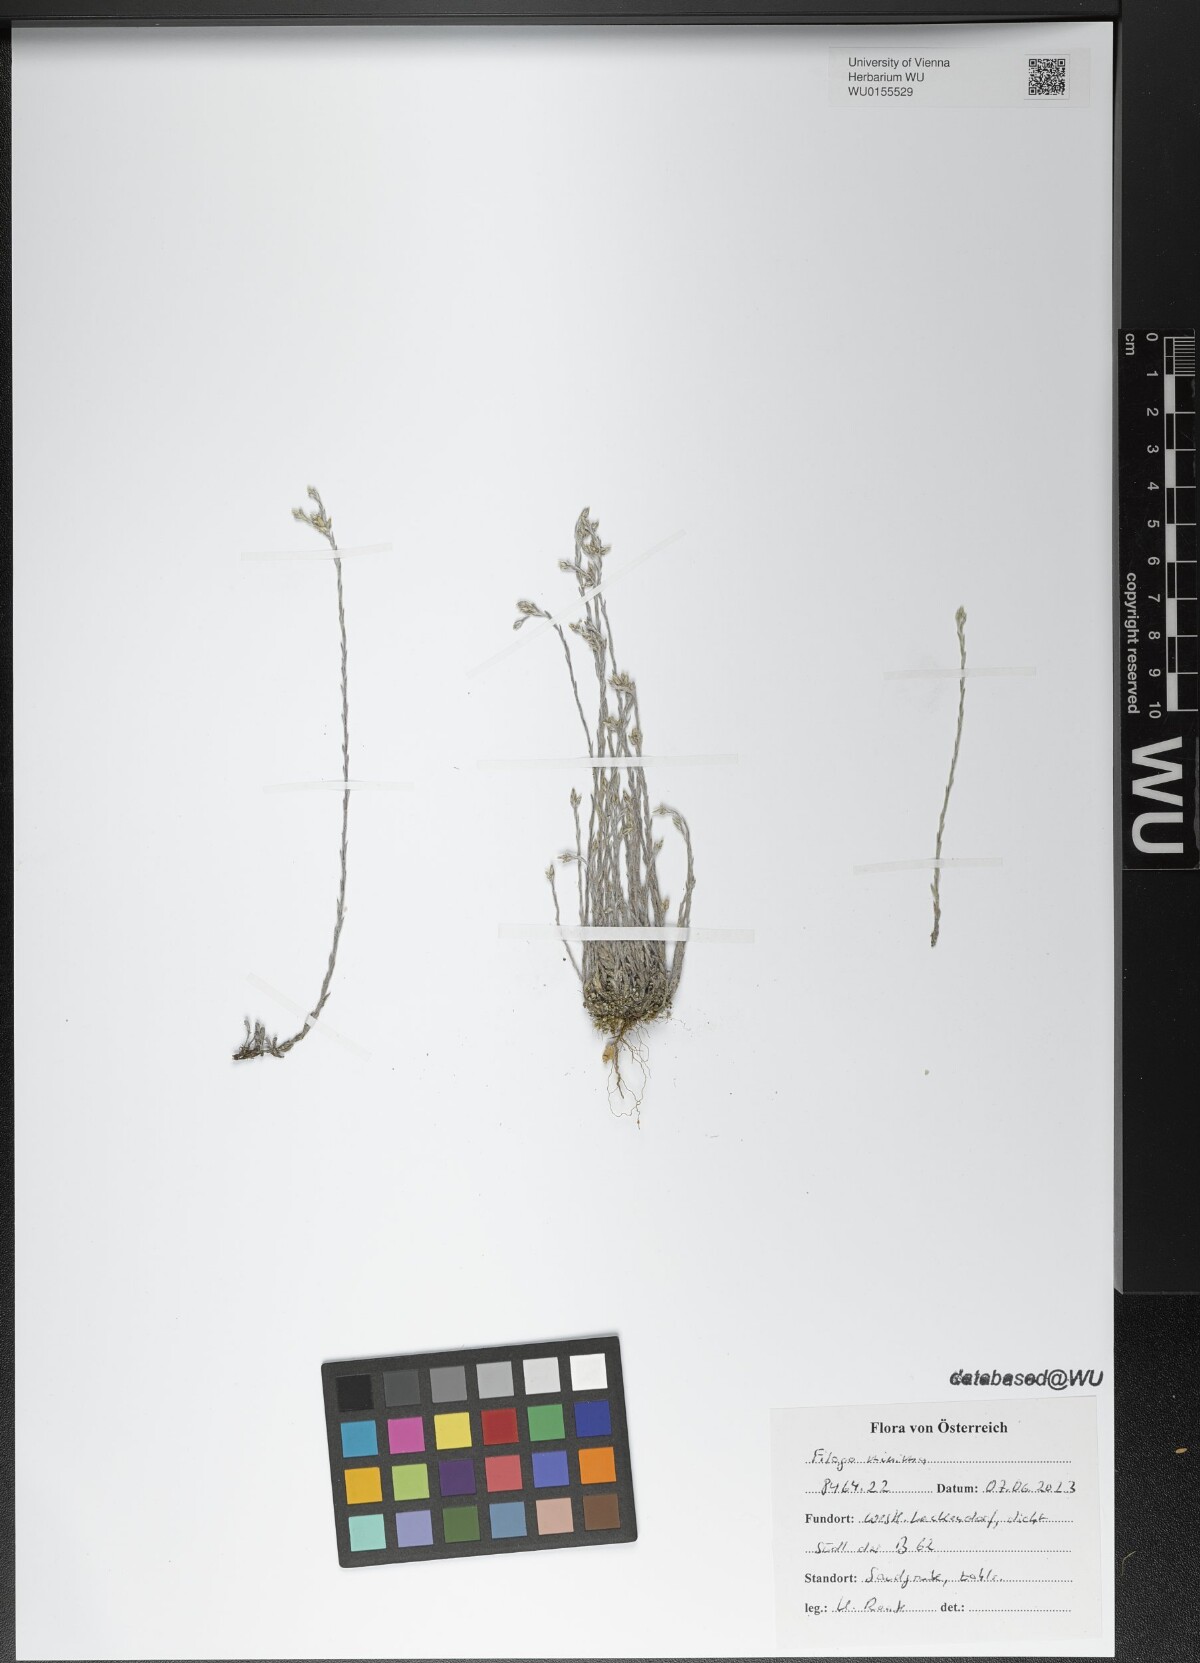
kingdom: Plantae
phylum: Tracheophyta
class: Magnoliopsida
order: Asterales
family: Asteraceae
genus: Logfia
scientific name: Logfia minima
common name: Little cottonrose
